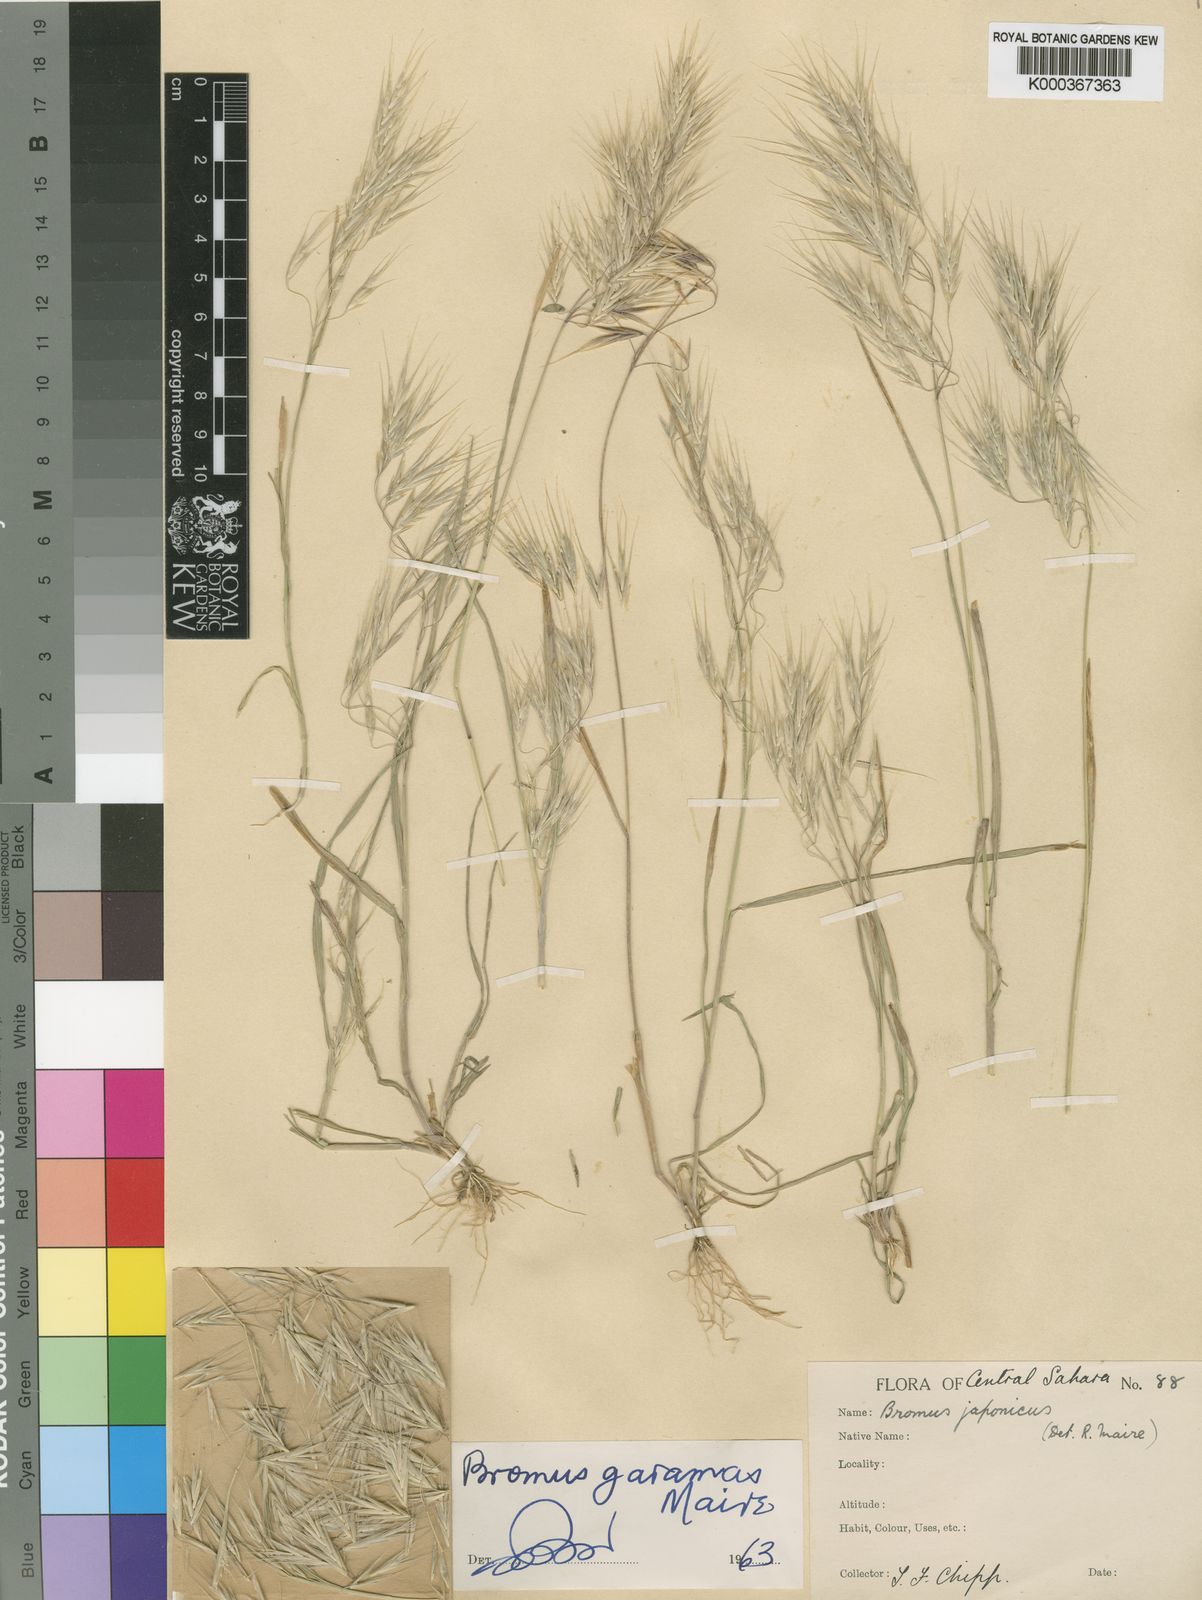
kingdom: Plantae
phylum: Tracheophyta
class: Liliopsida
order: Poales
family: Poaceae
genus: Bromus
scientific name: Bromus pectinatus
